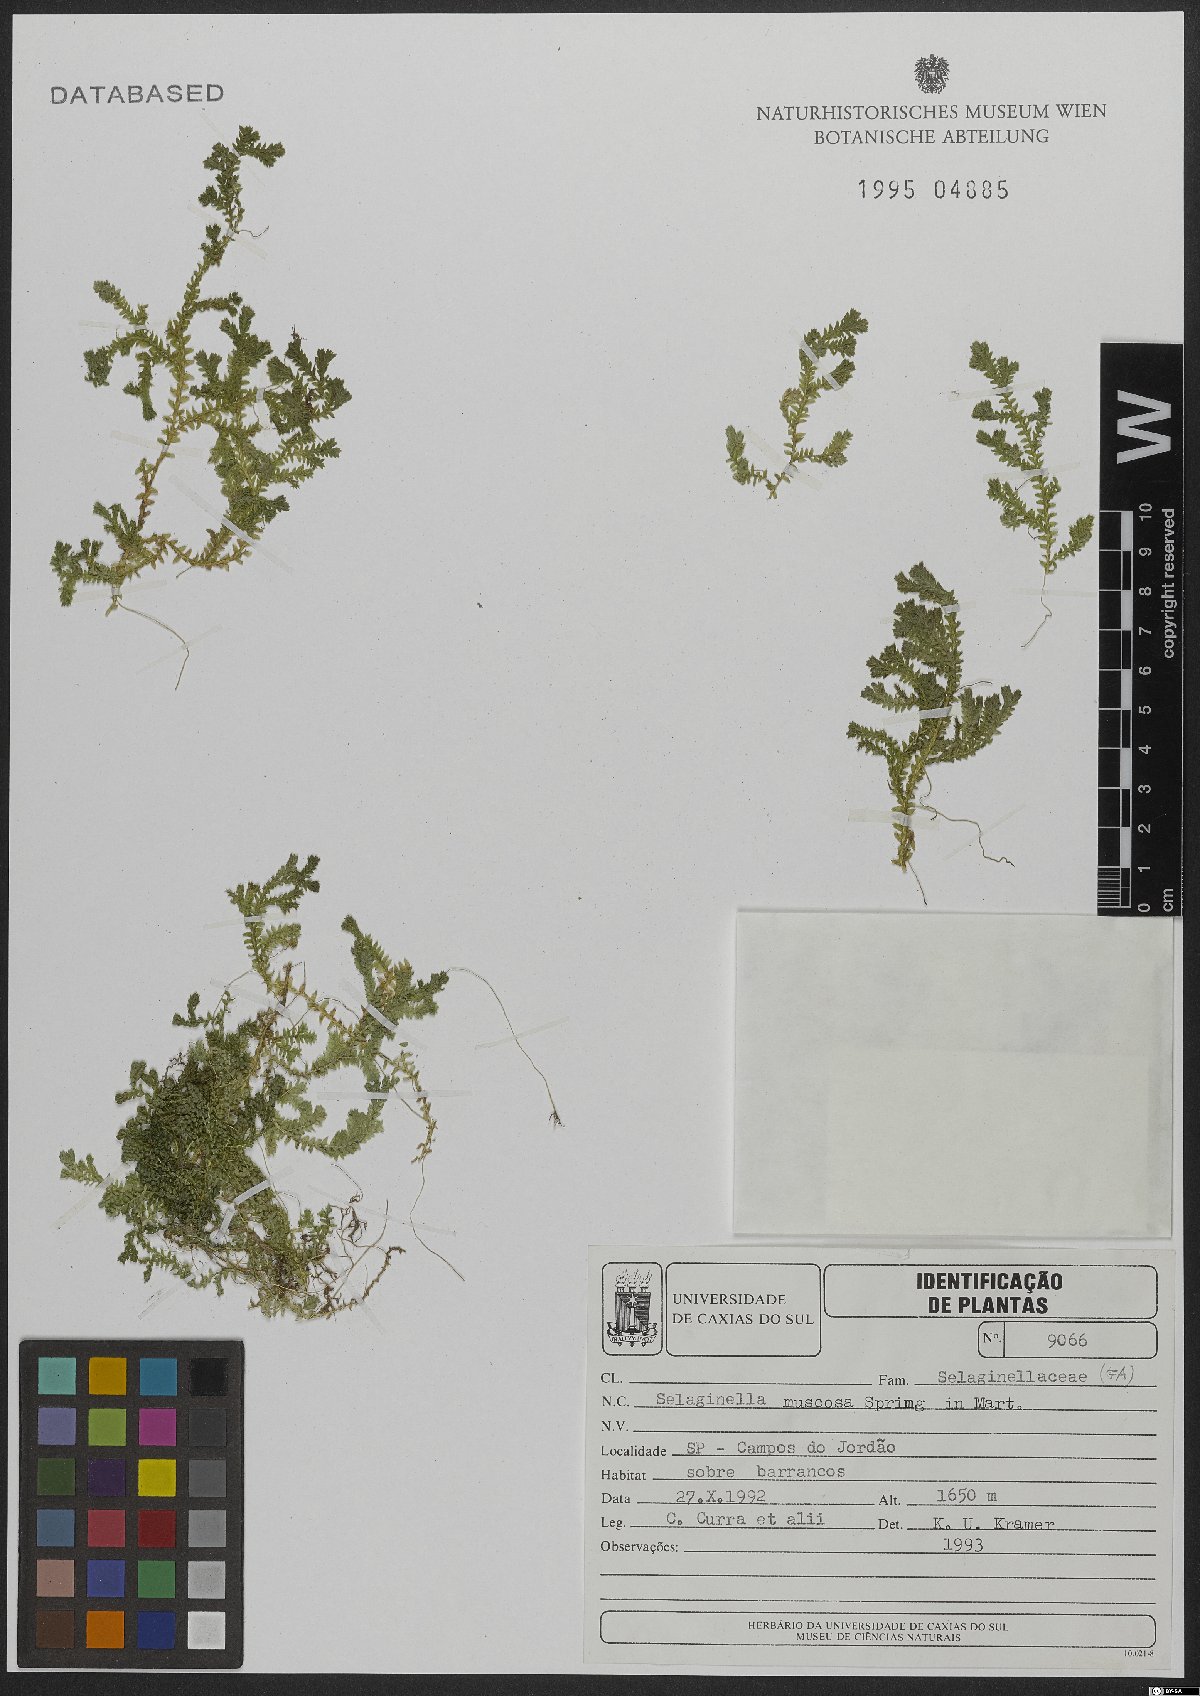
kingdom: Plantae
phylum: Tracheophyta
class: Lycopodiopsida
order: Selaginellales
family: Selaginellaceae
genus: Selaginella
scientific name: Selaginella muscosa
